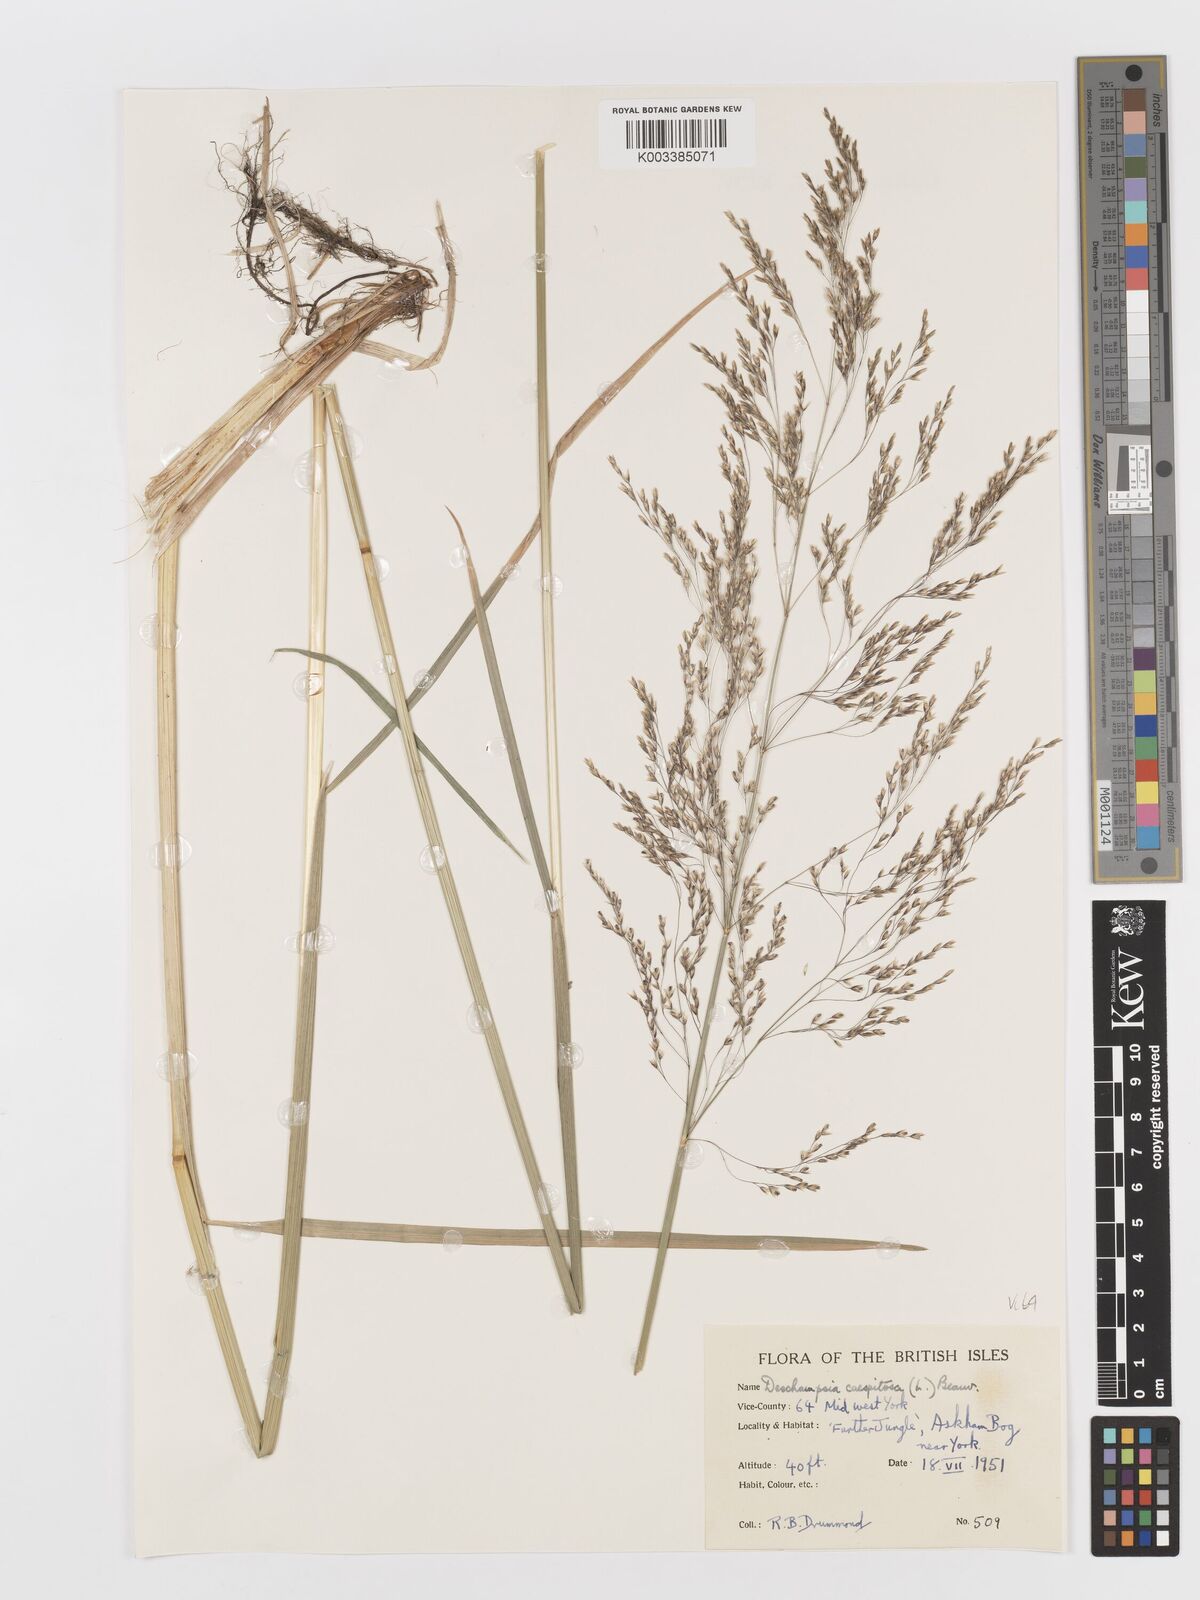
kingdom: Plantae
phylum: Tracheophyta
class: Liliopsida
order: Poales
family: Poaceae
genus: Deschampsia
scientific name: Deschampsia cespitosa
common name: Tufted hair-grass
